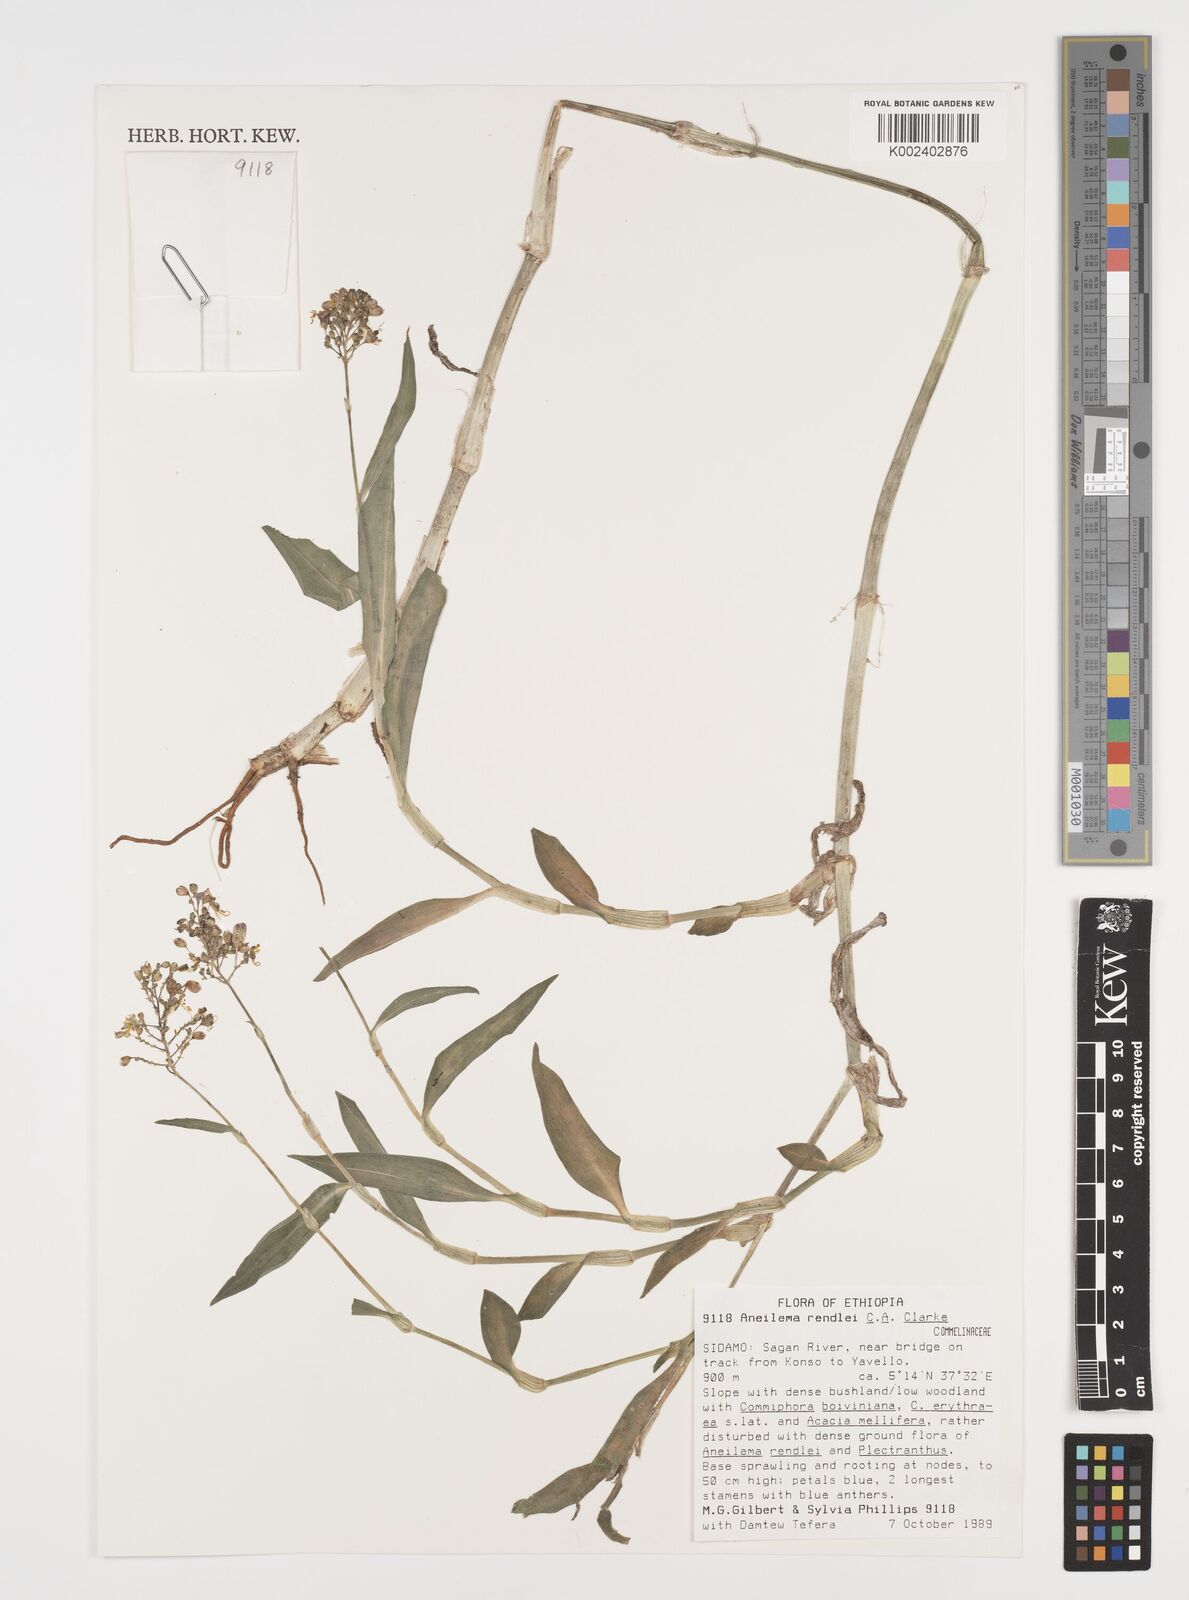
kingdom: Plantae
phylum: Tracheophyta
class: Liliopsida
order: Commelinales
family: Commelinaceae
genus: Aneilema
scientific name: Aneilema rendlei
